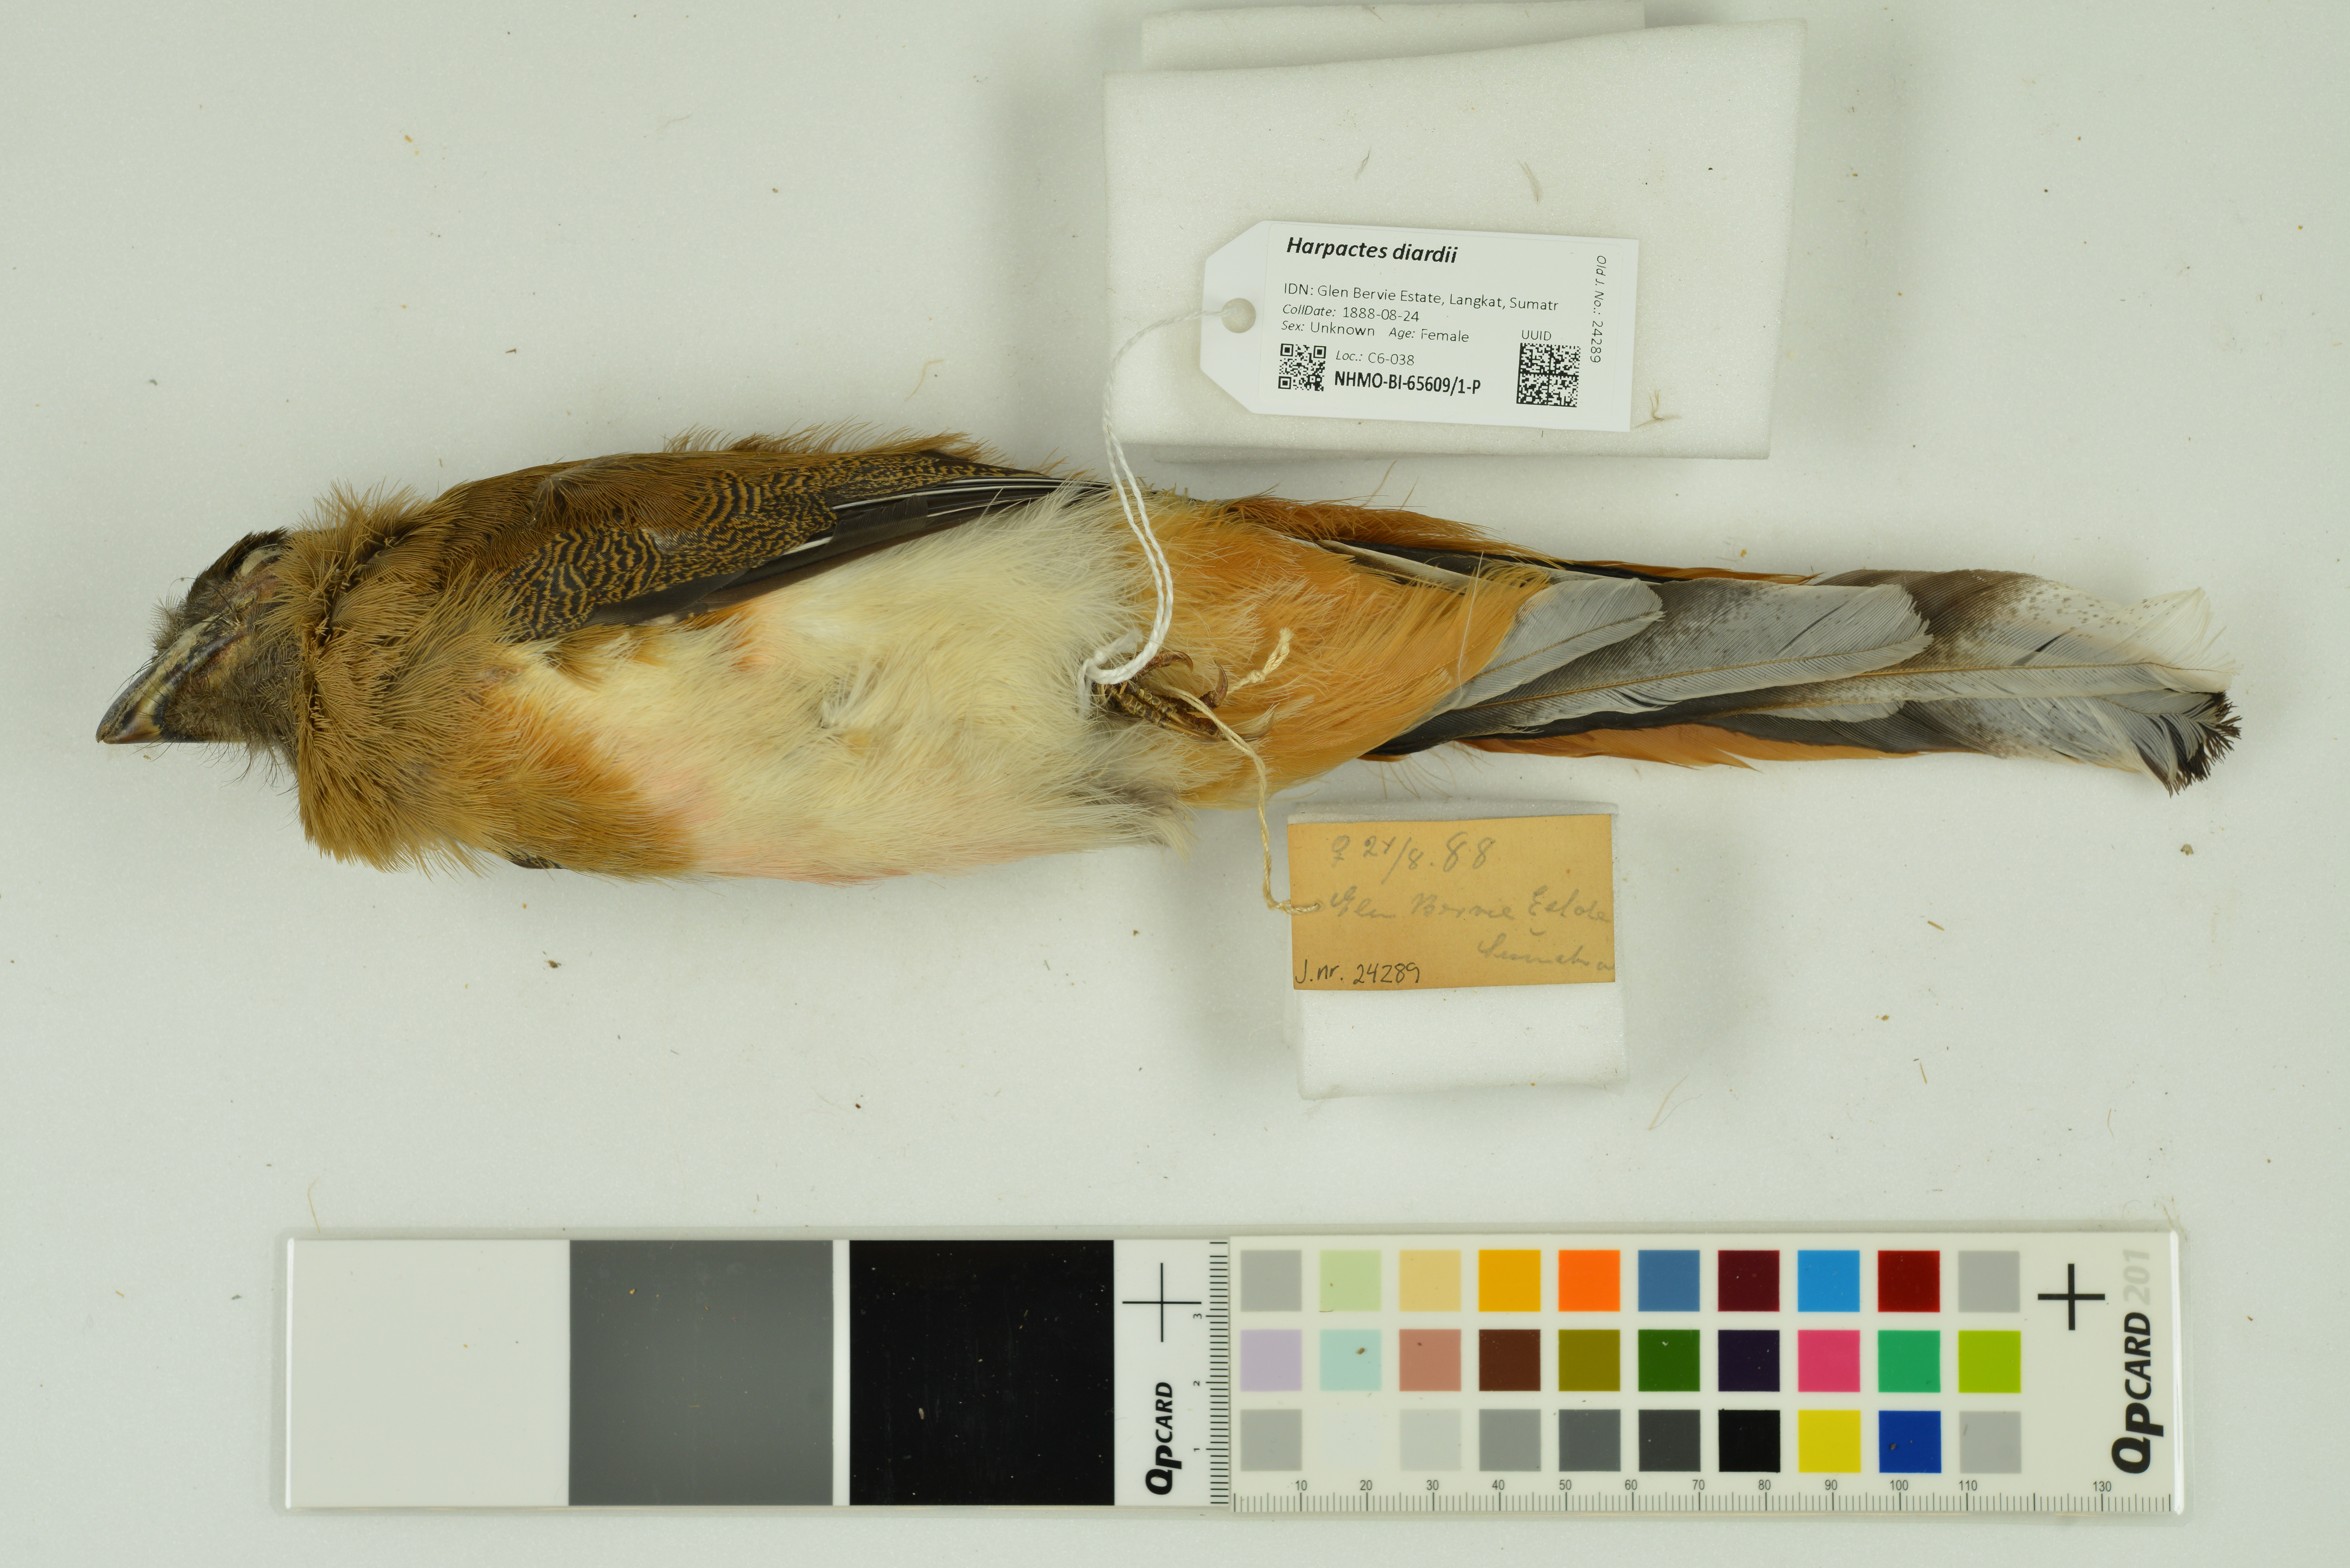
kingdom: Animalia
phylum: Chordata
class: Aves
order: Trogoniformes
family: Trogonidae
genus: Harpactes
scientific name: Harpactes diardii
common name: Diard's trogon
